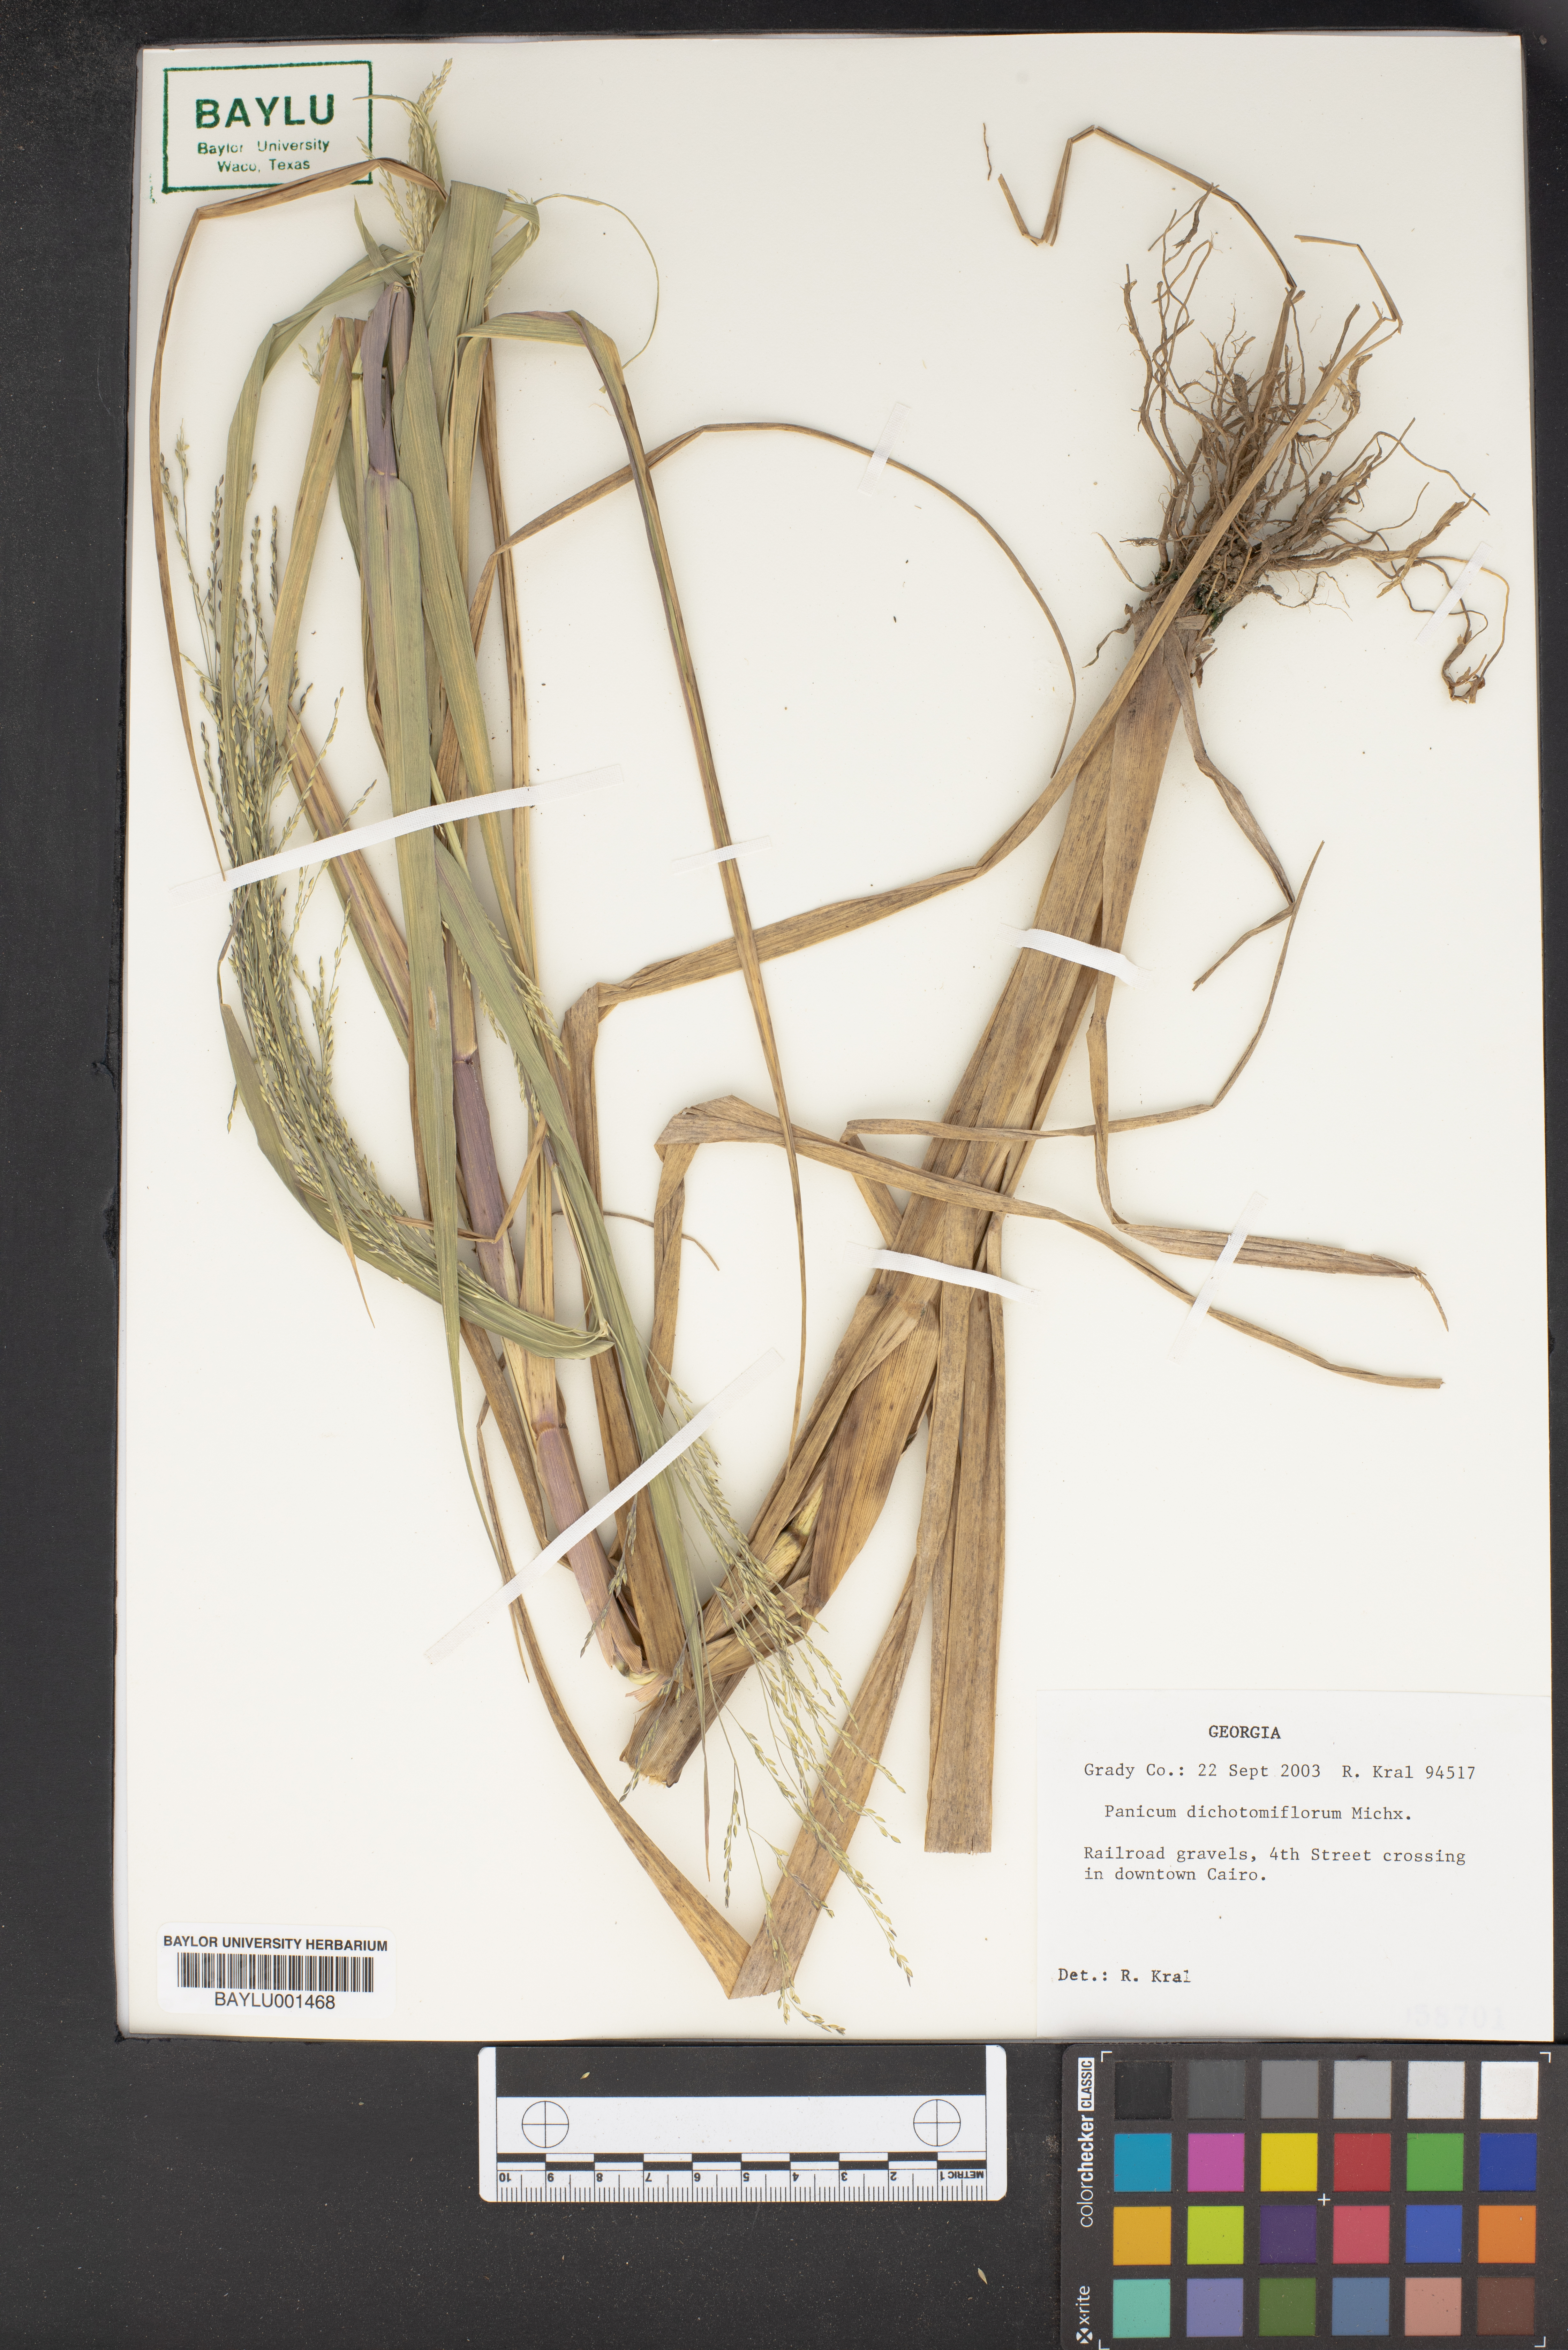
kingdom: Plantae
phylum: Tracheophyta
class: Liliopsida
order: Poales
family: Poaceae
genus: Panicum
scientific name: Panicum dichotomiflorum
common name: Autumn millet
